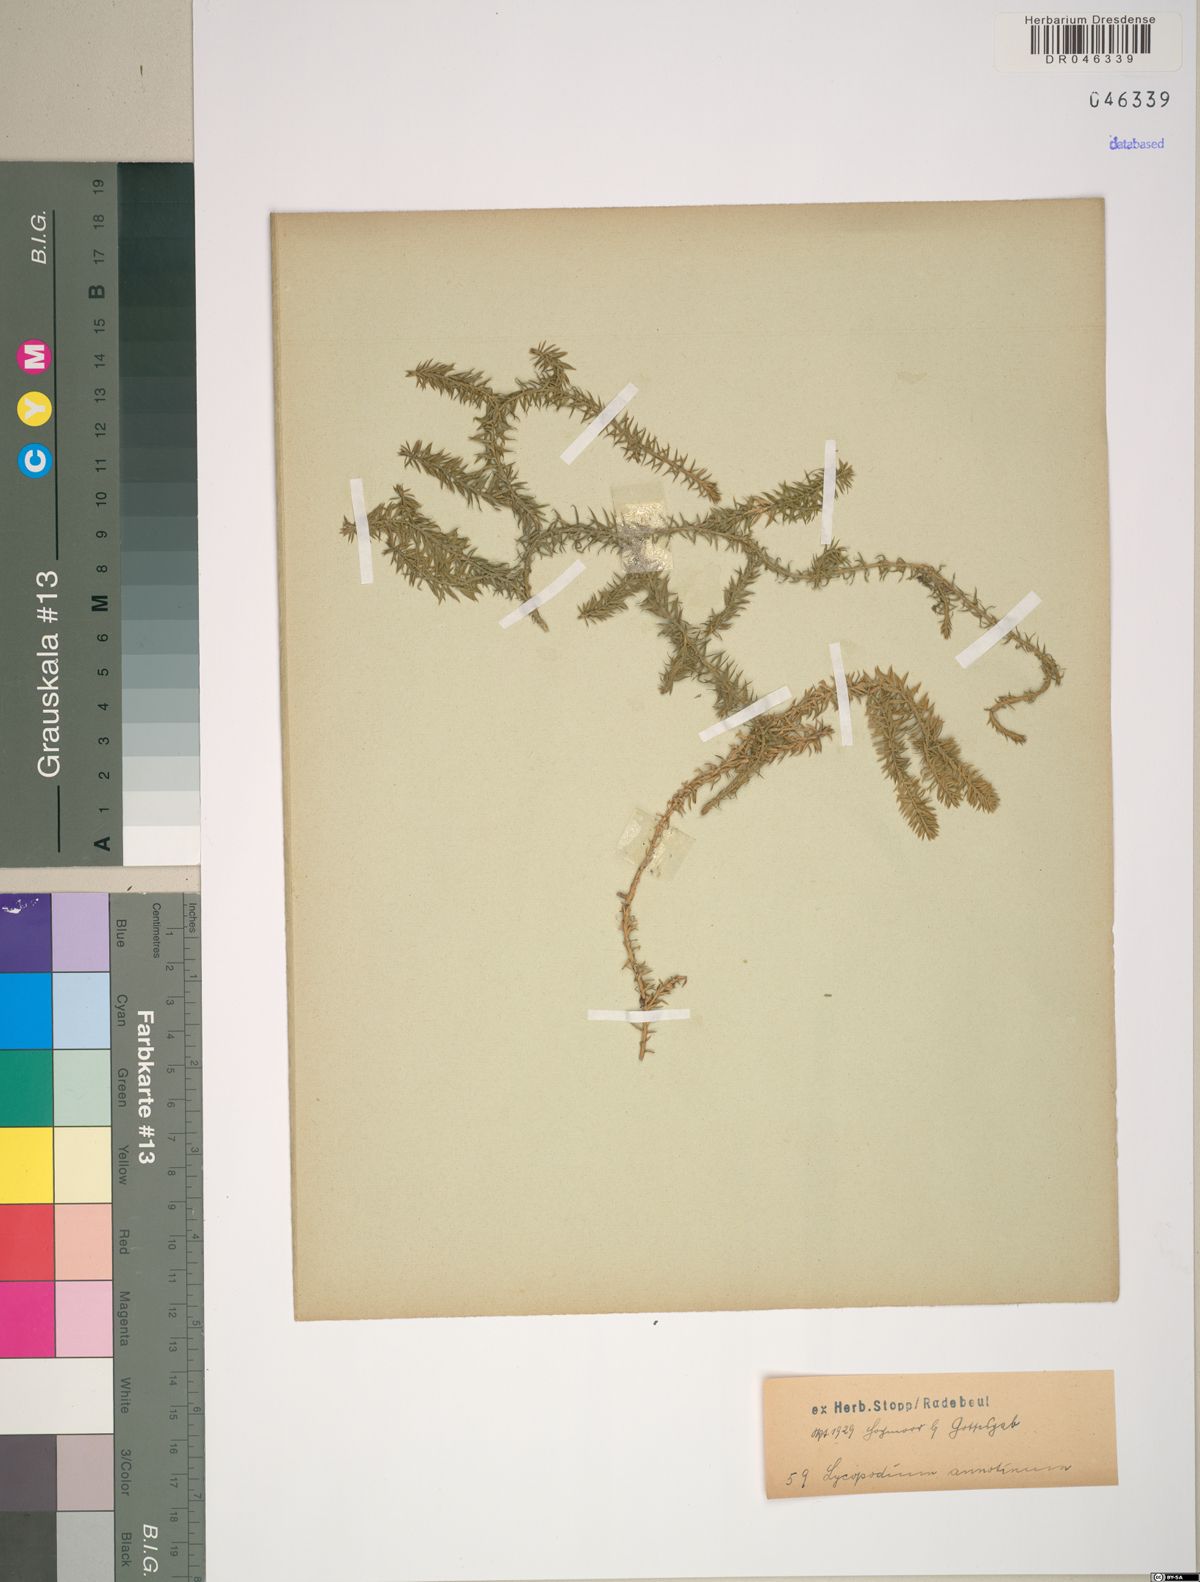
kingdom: Plantae
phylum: Tracheophyta
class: Lycopodiopsida
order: Lycopodiales
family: Lycopodiaceae
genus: Spinulum
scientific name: Spinulum annotinum
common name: Interrupted club-moss
